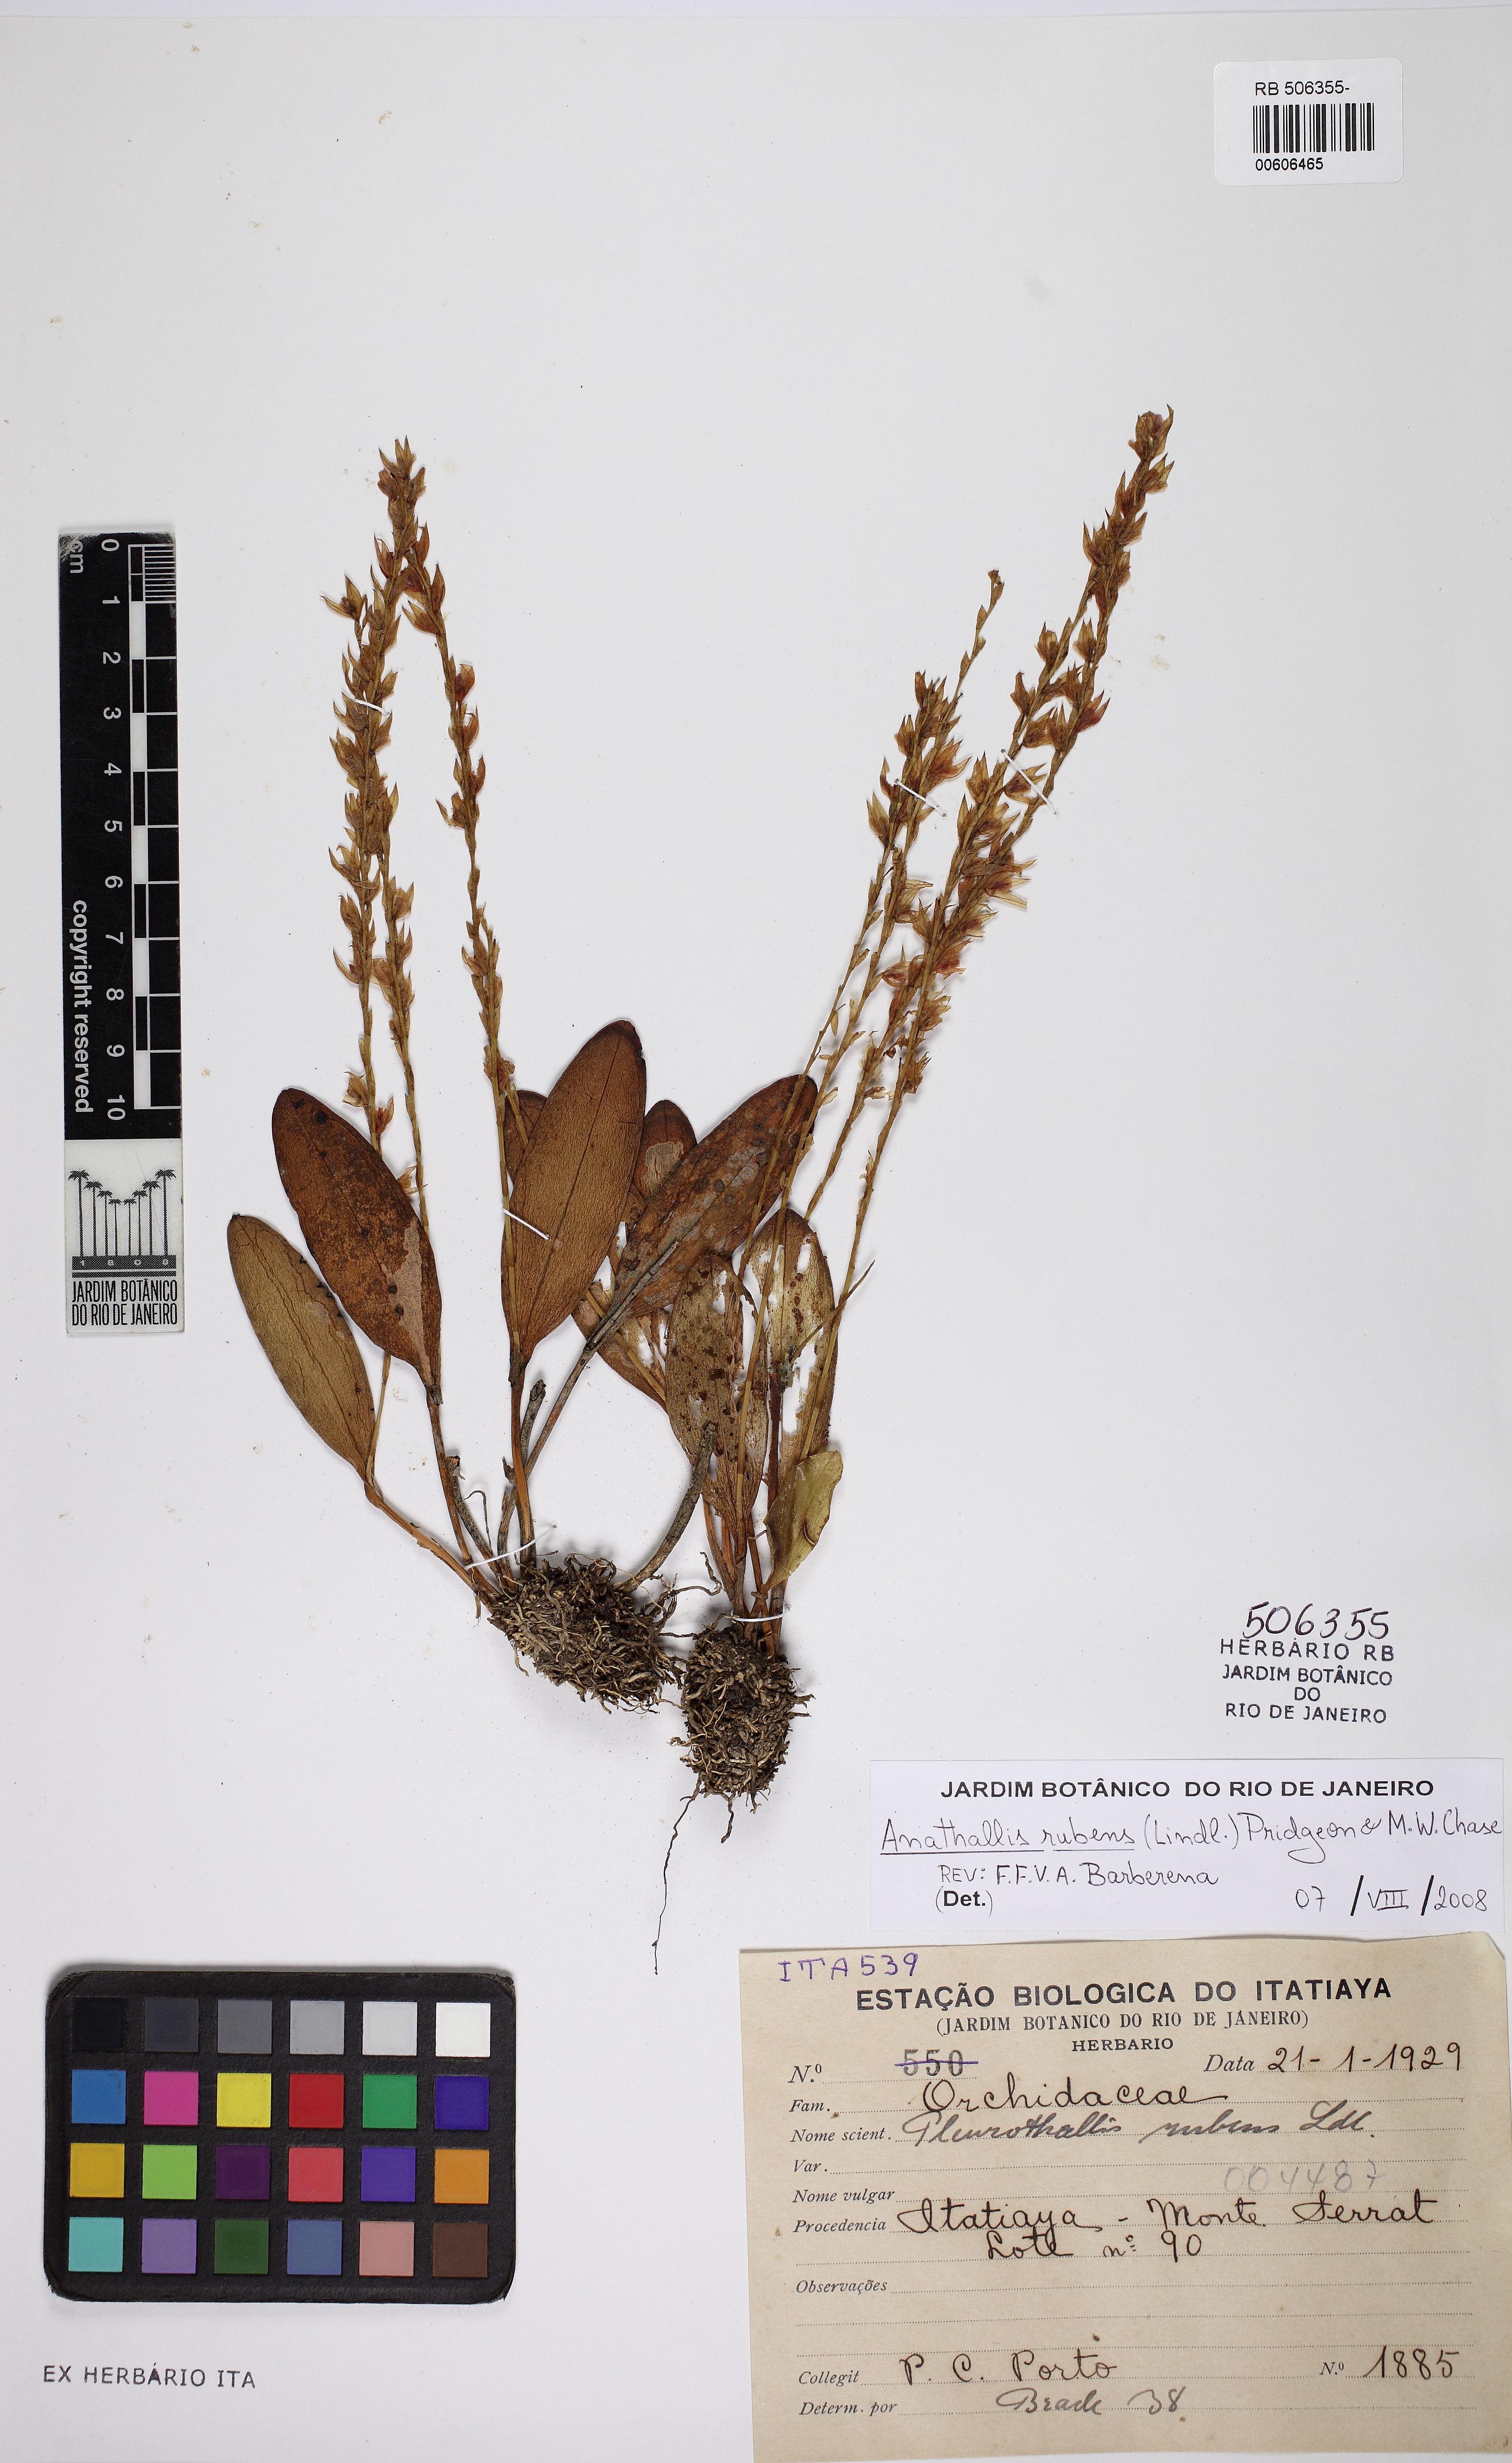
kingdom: Plantae
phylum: Tracheophyta
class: Liliopsida
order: Asparagales
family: Orchidaceae
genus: Stelis
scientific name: Stelis montserratii
